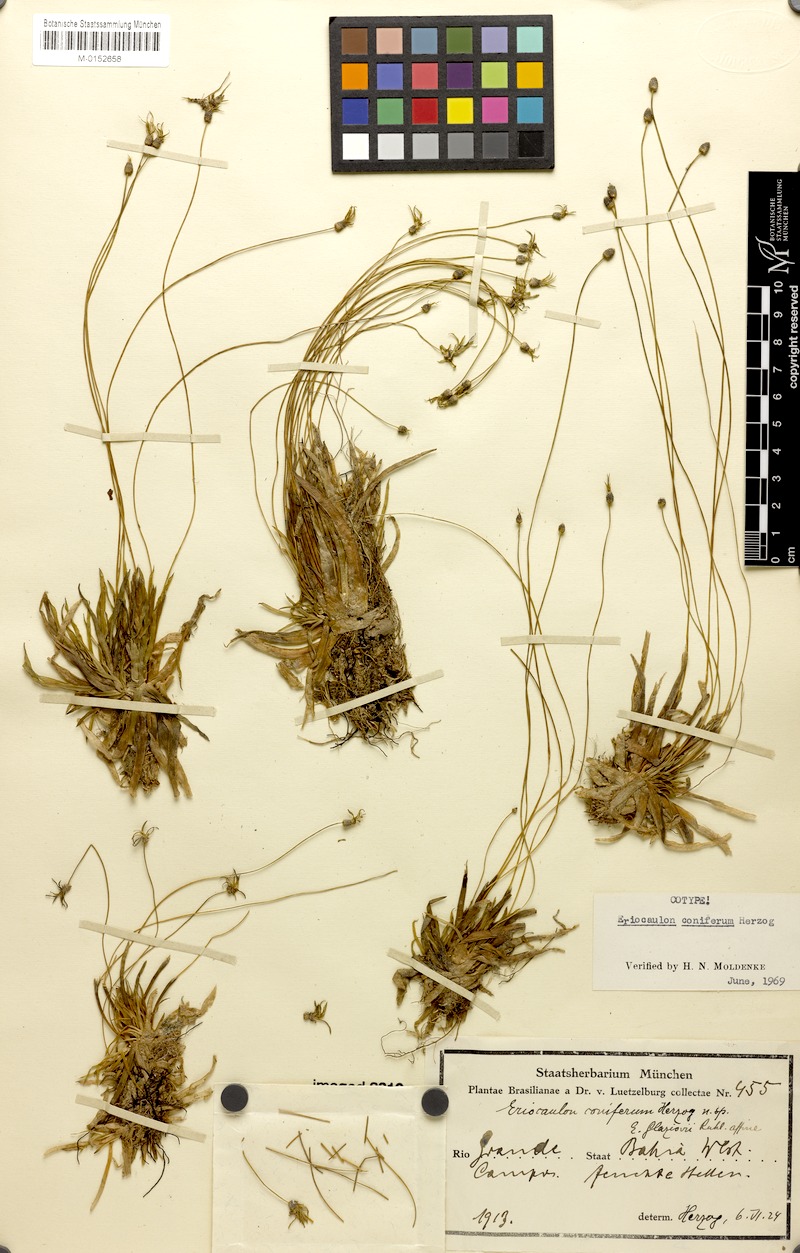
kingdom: Plantae
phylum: Tracheophyta
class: Liliopsida
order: Poales
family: Eriocaulaceae
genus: Eriocaulon
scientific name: Eriocaulon coniferum
